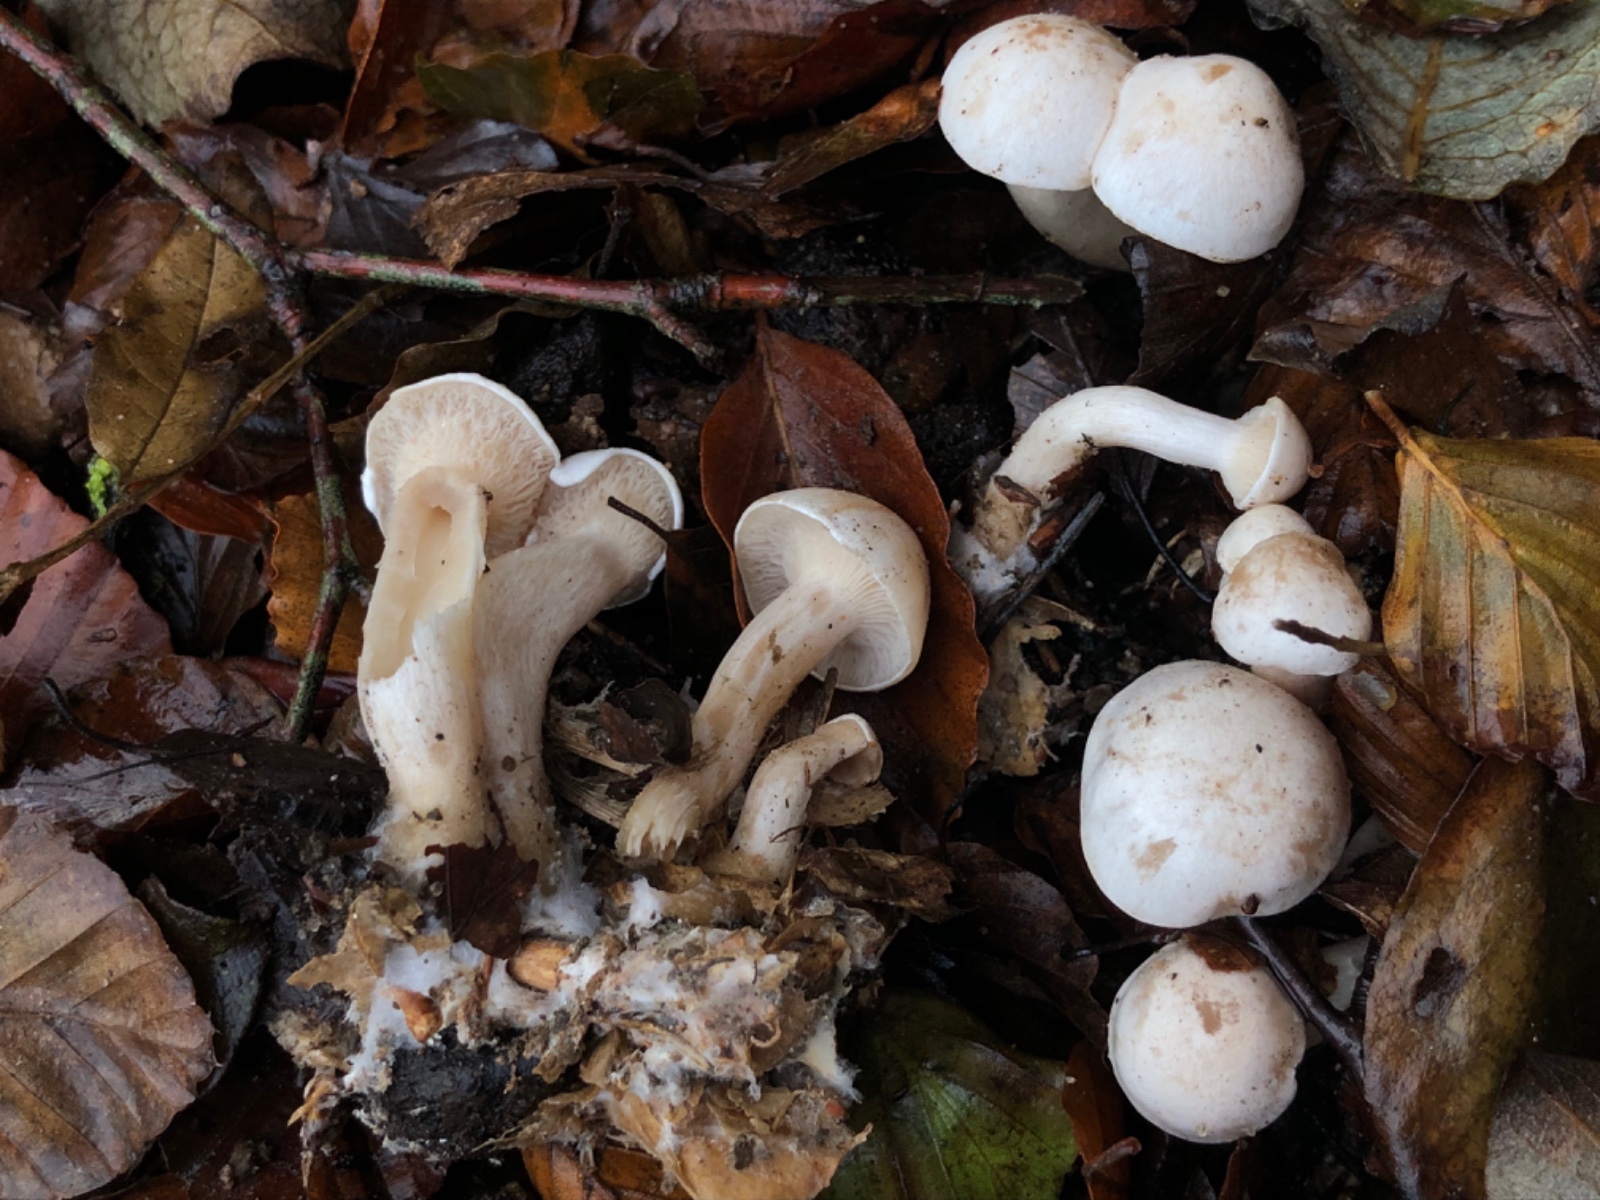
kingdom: Fungi
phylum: Basidiomycota
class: Agaricomycetes
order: Agaricales
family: Tricholomataceae
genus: Clitocybe
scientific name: Clitocybe phyllophila
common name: løv-tragthat
